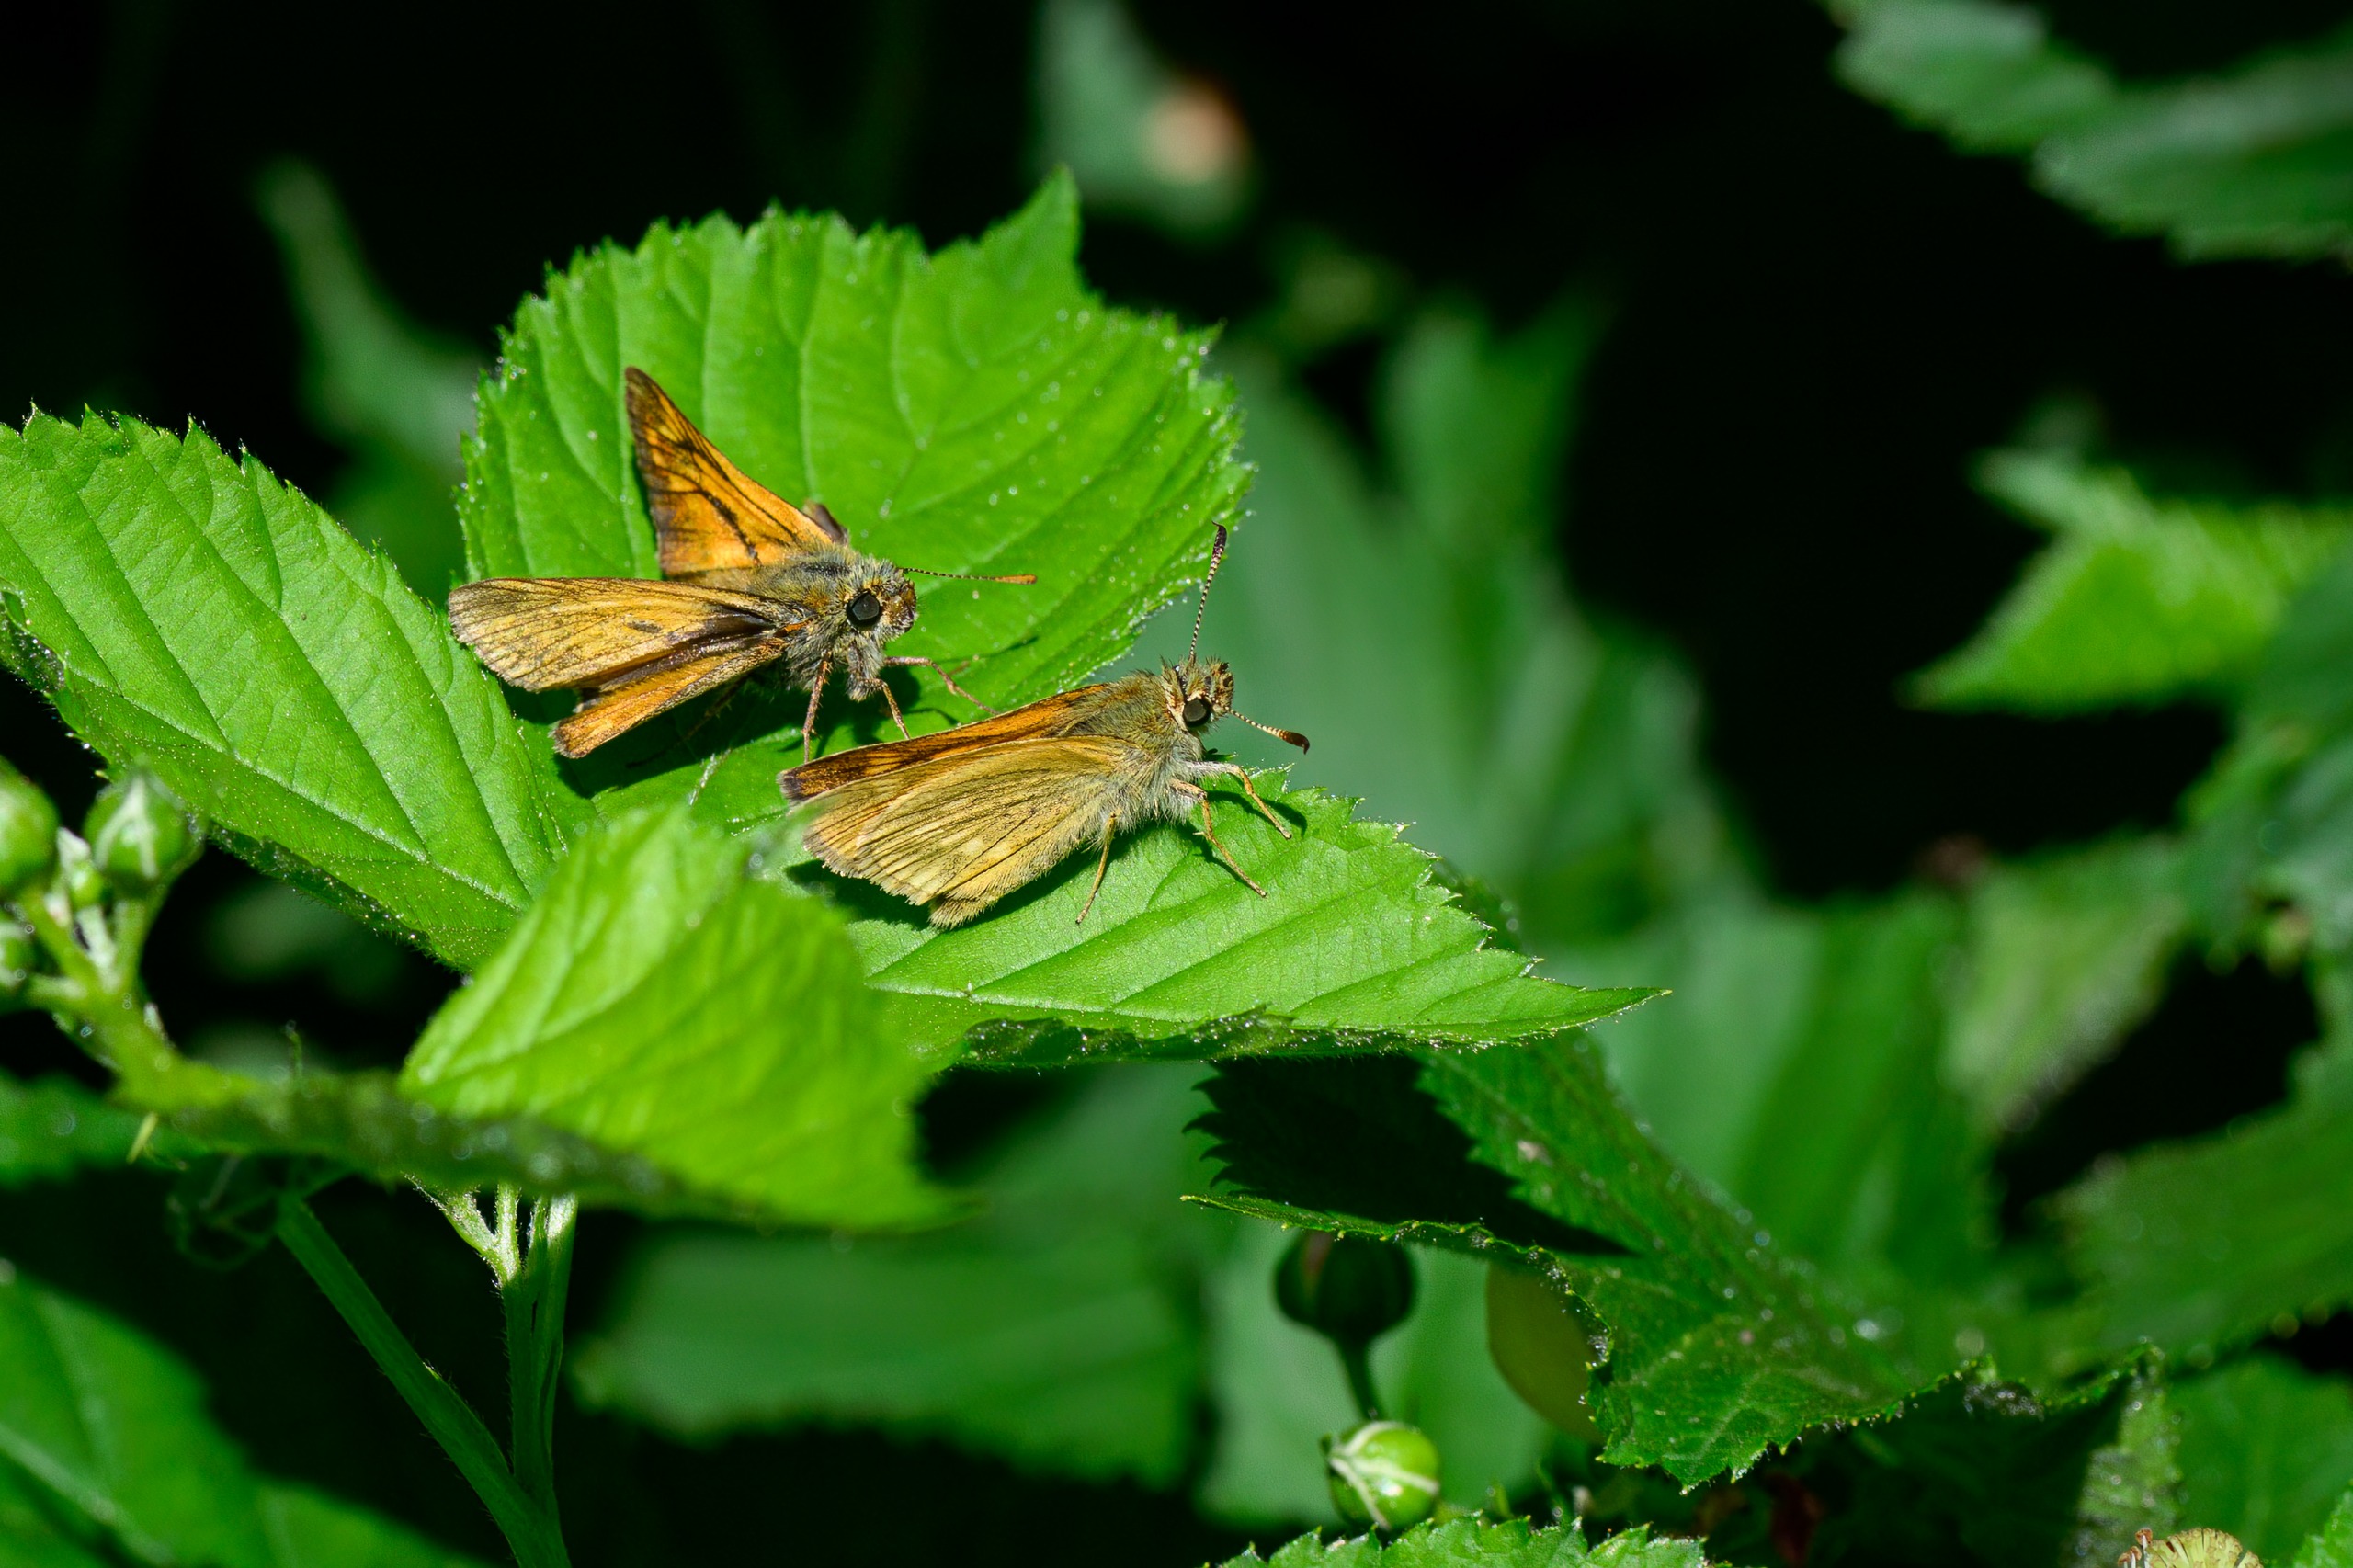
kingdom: Animalia
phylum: Arthropoda
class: Insecta
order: Lepidoptera
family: Hesperiidae
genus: Ochlodes
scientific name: Ochlodes venata
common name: Stor bredpande
